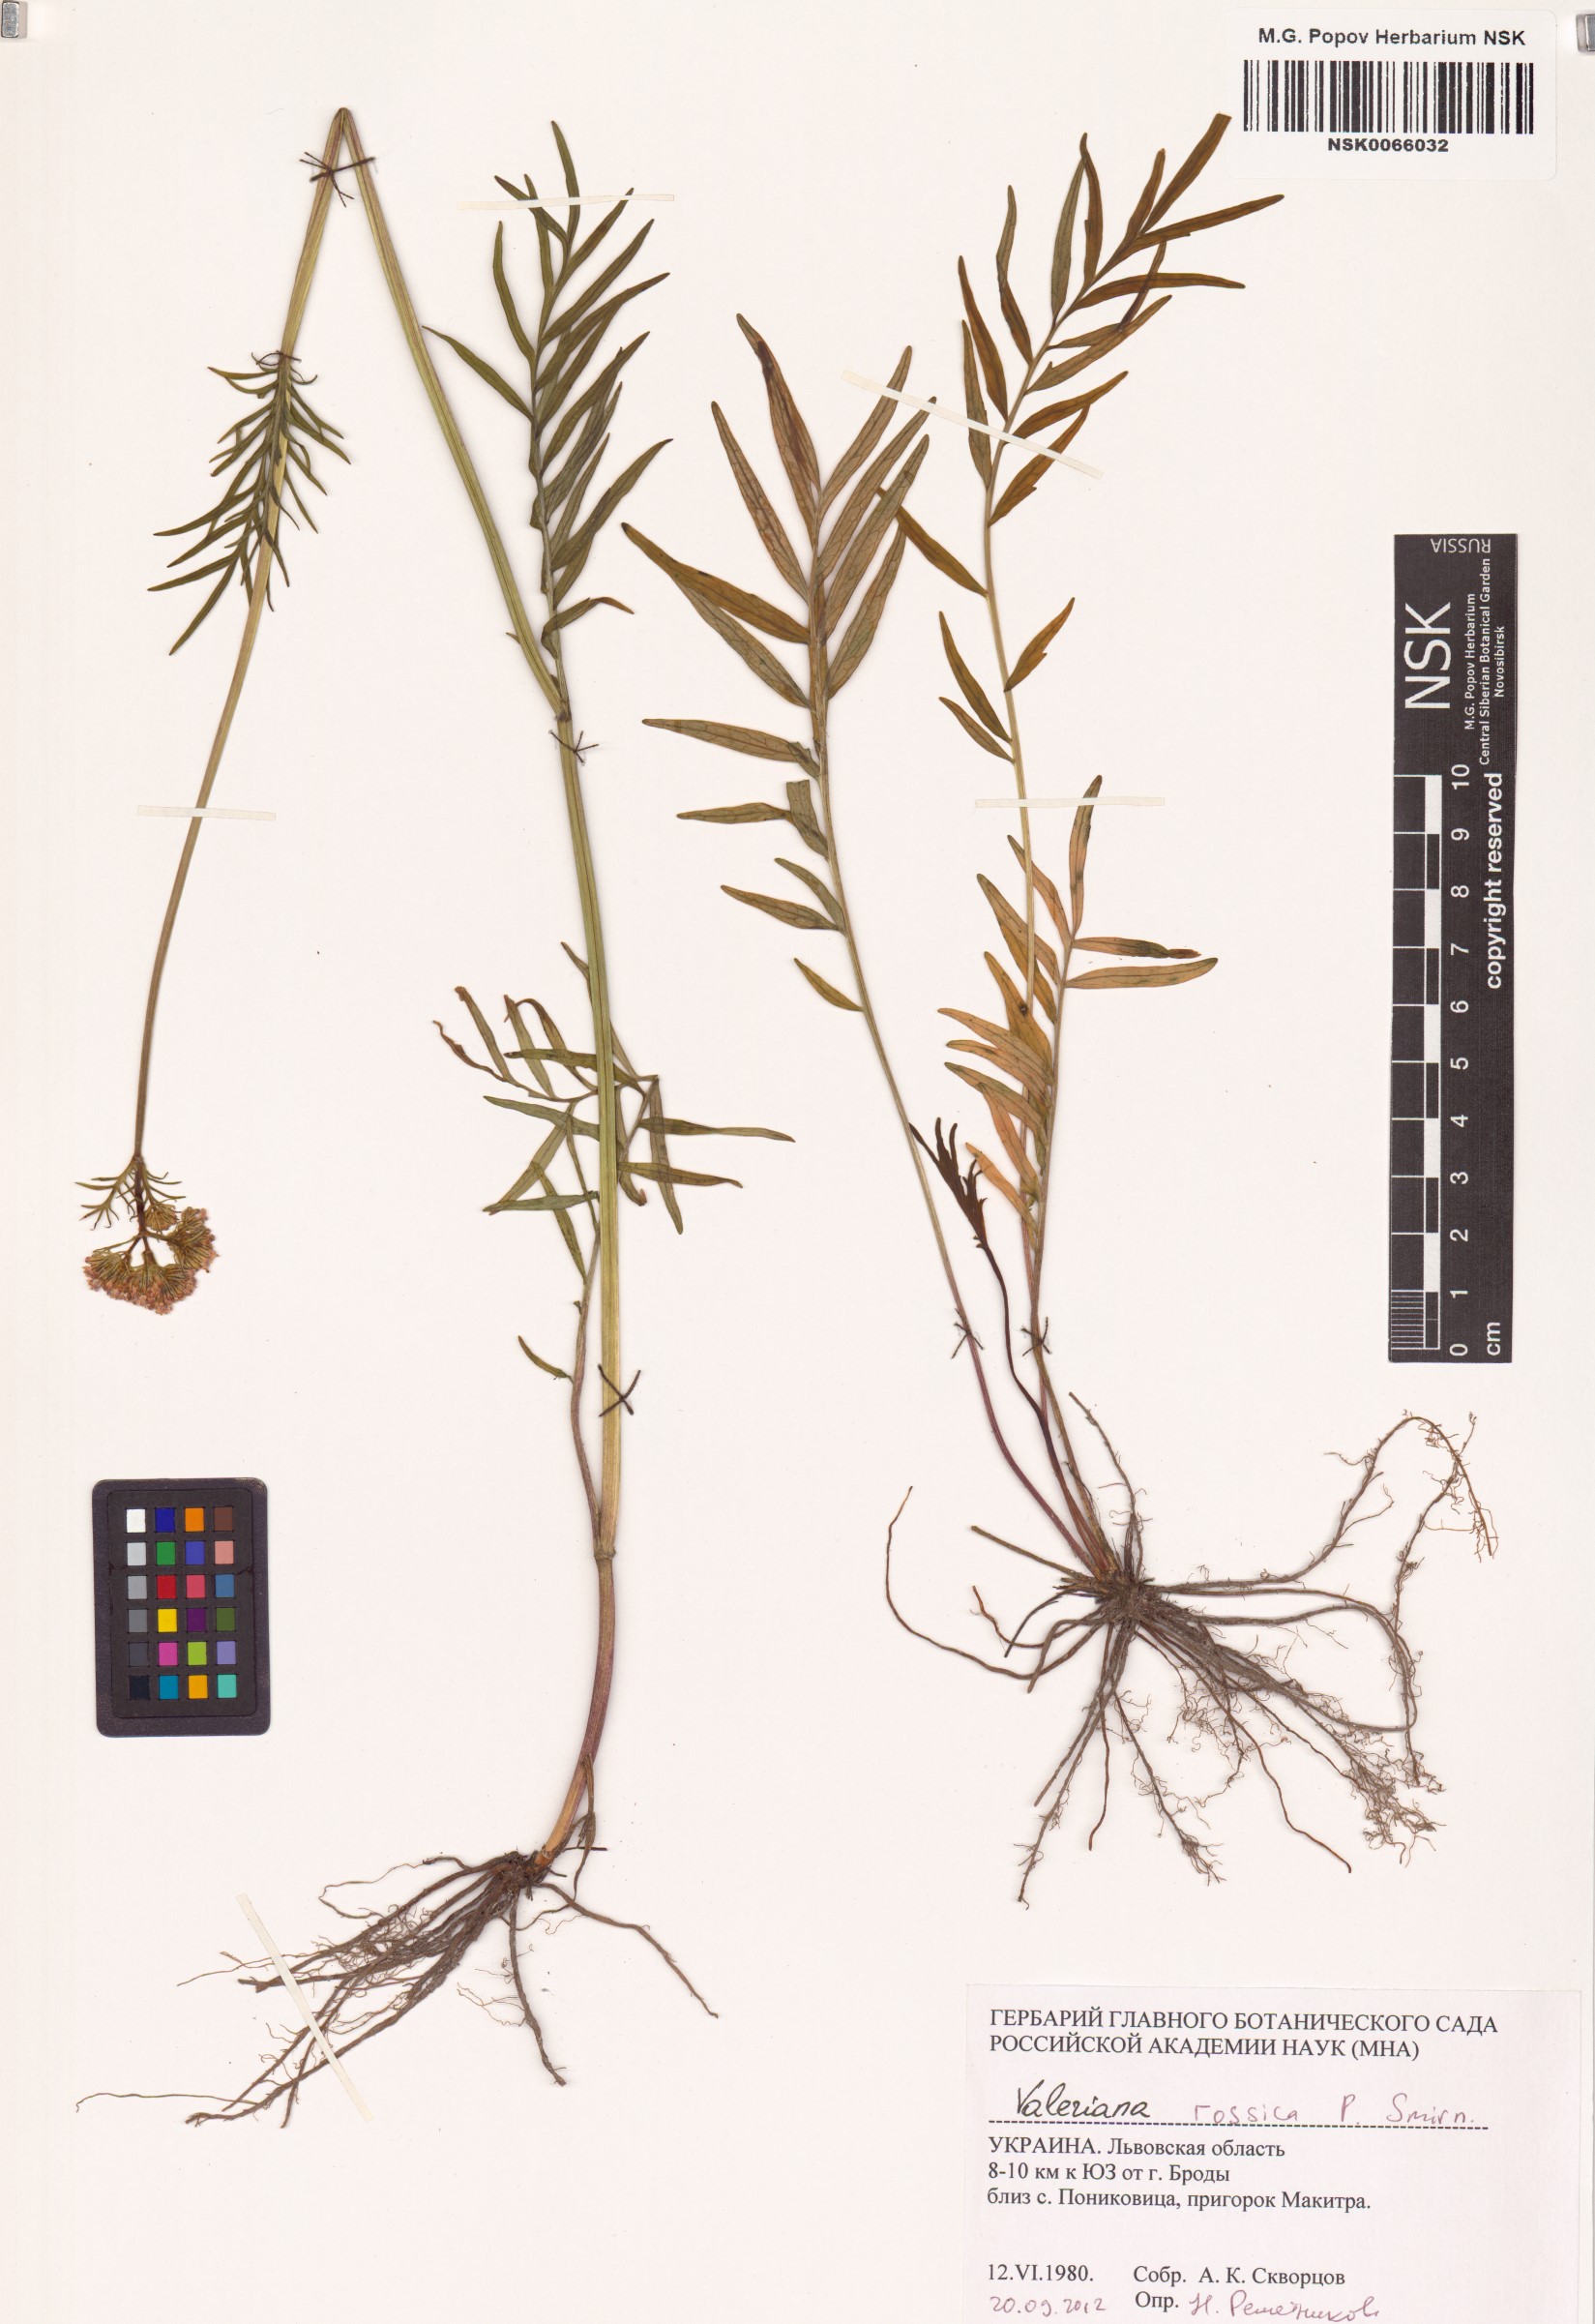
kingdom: Plantae
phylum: Tracheophyta
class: Magnoliopsida
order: Dipsacales
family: Caprifoliaceae
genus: Valeriana
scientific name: Valeriana rossica
